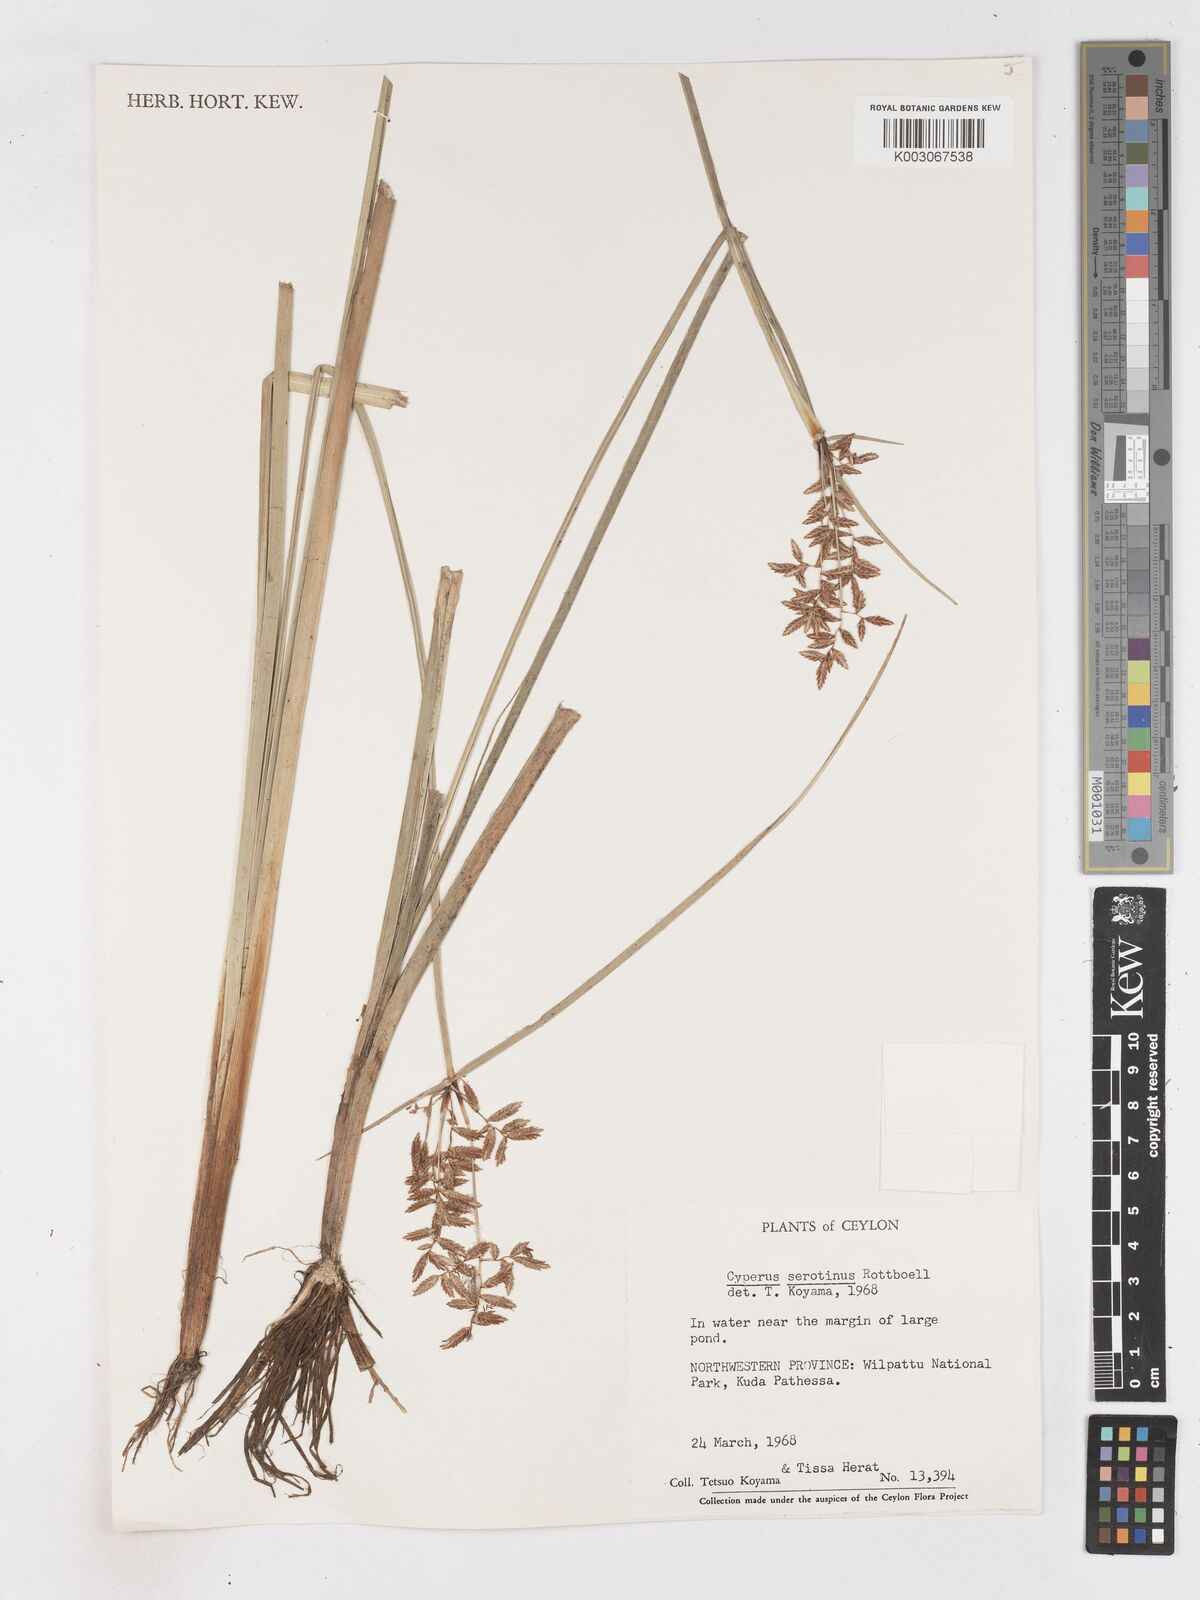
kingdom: Plantae
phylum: Tracheophyta
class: Liliopsida
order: Poales
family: Cyperaceae
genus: Cyperus
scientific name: Cyperus serotinus
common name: Tidalmarsh flatsedge
